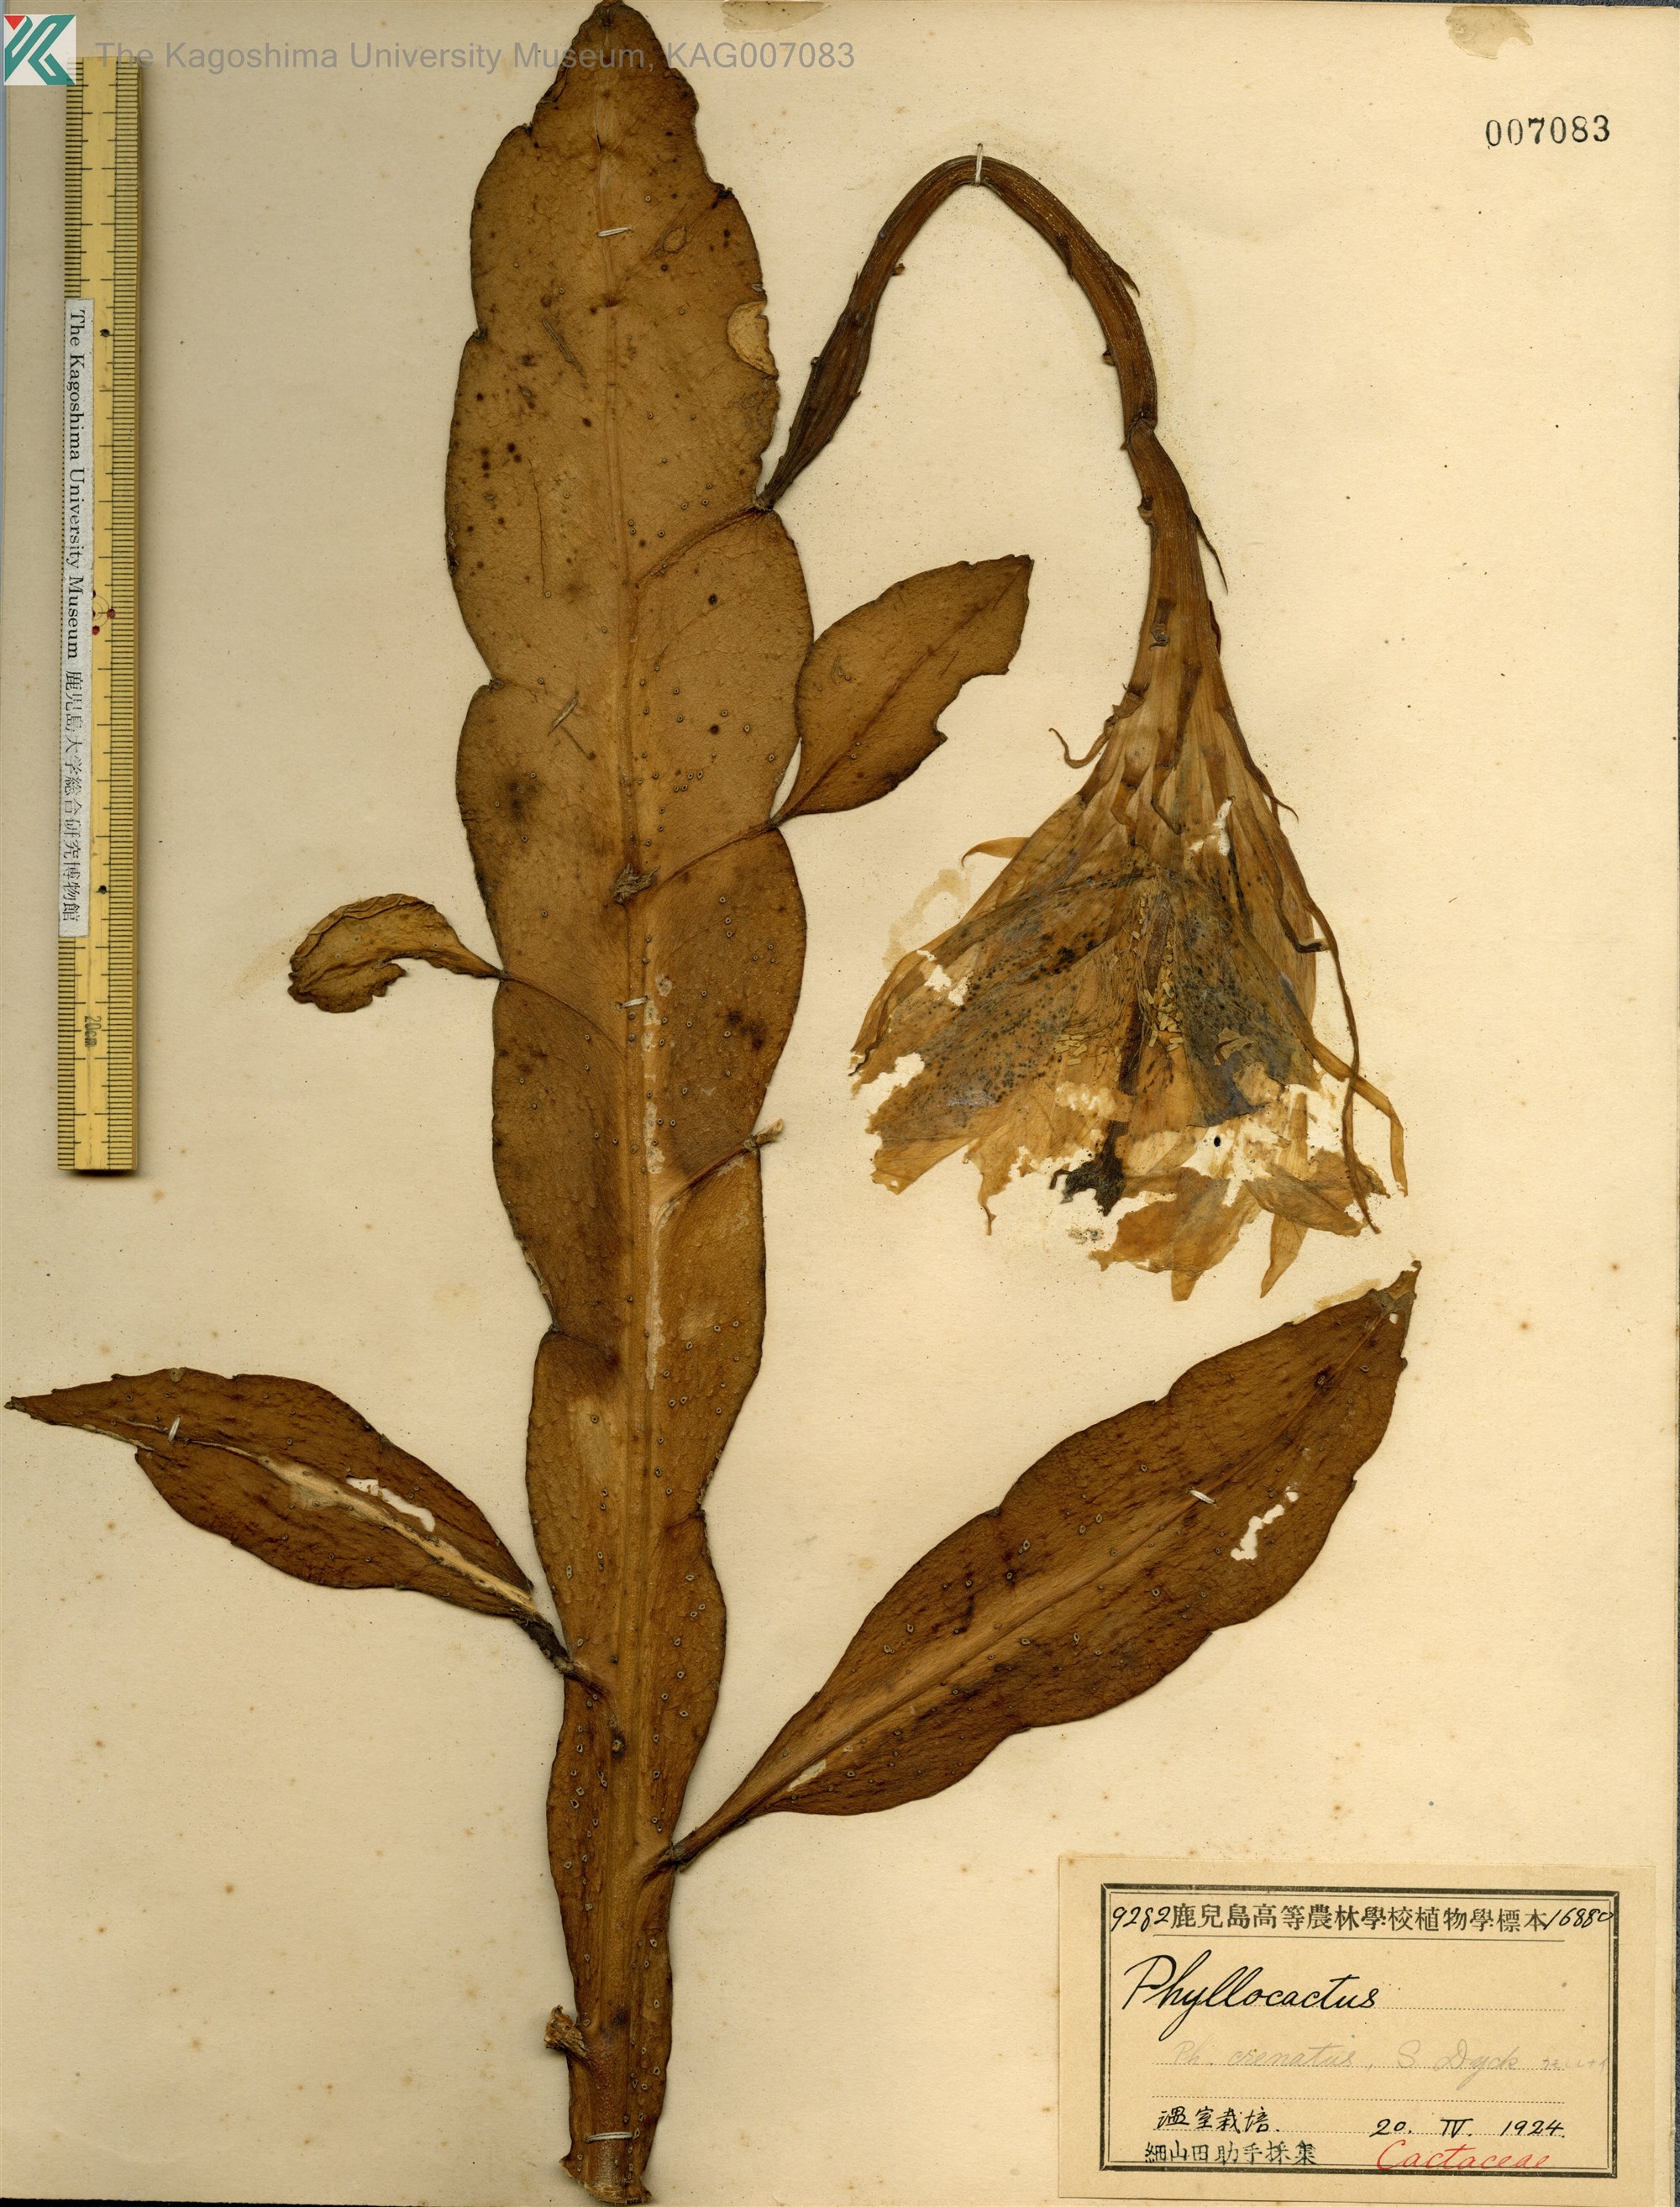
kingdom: Plantae
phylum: Tracheophyta
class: Magnoliopsida
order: Caryophyllales
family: Cactaceae
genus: Epiphyllum
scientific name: Epiphyllum
